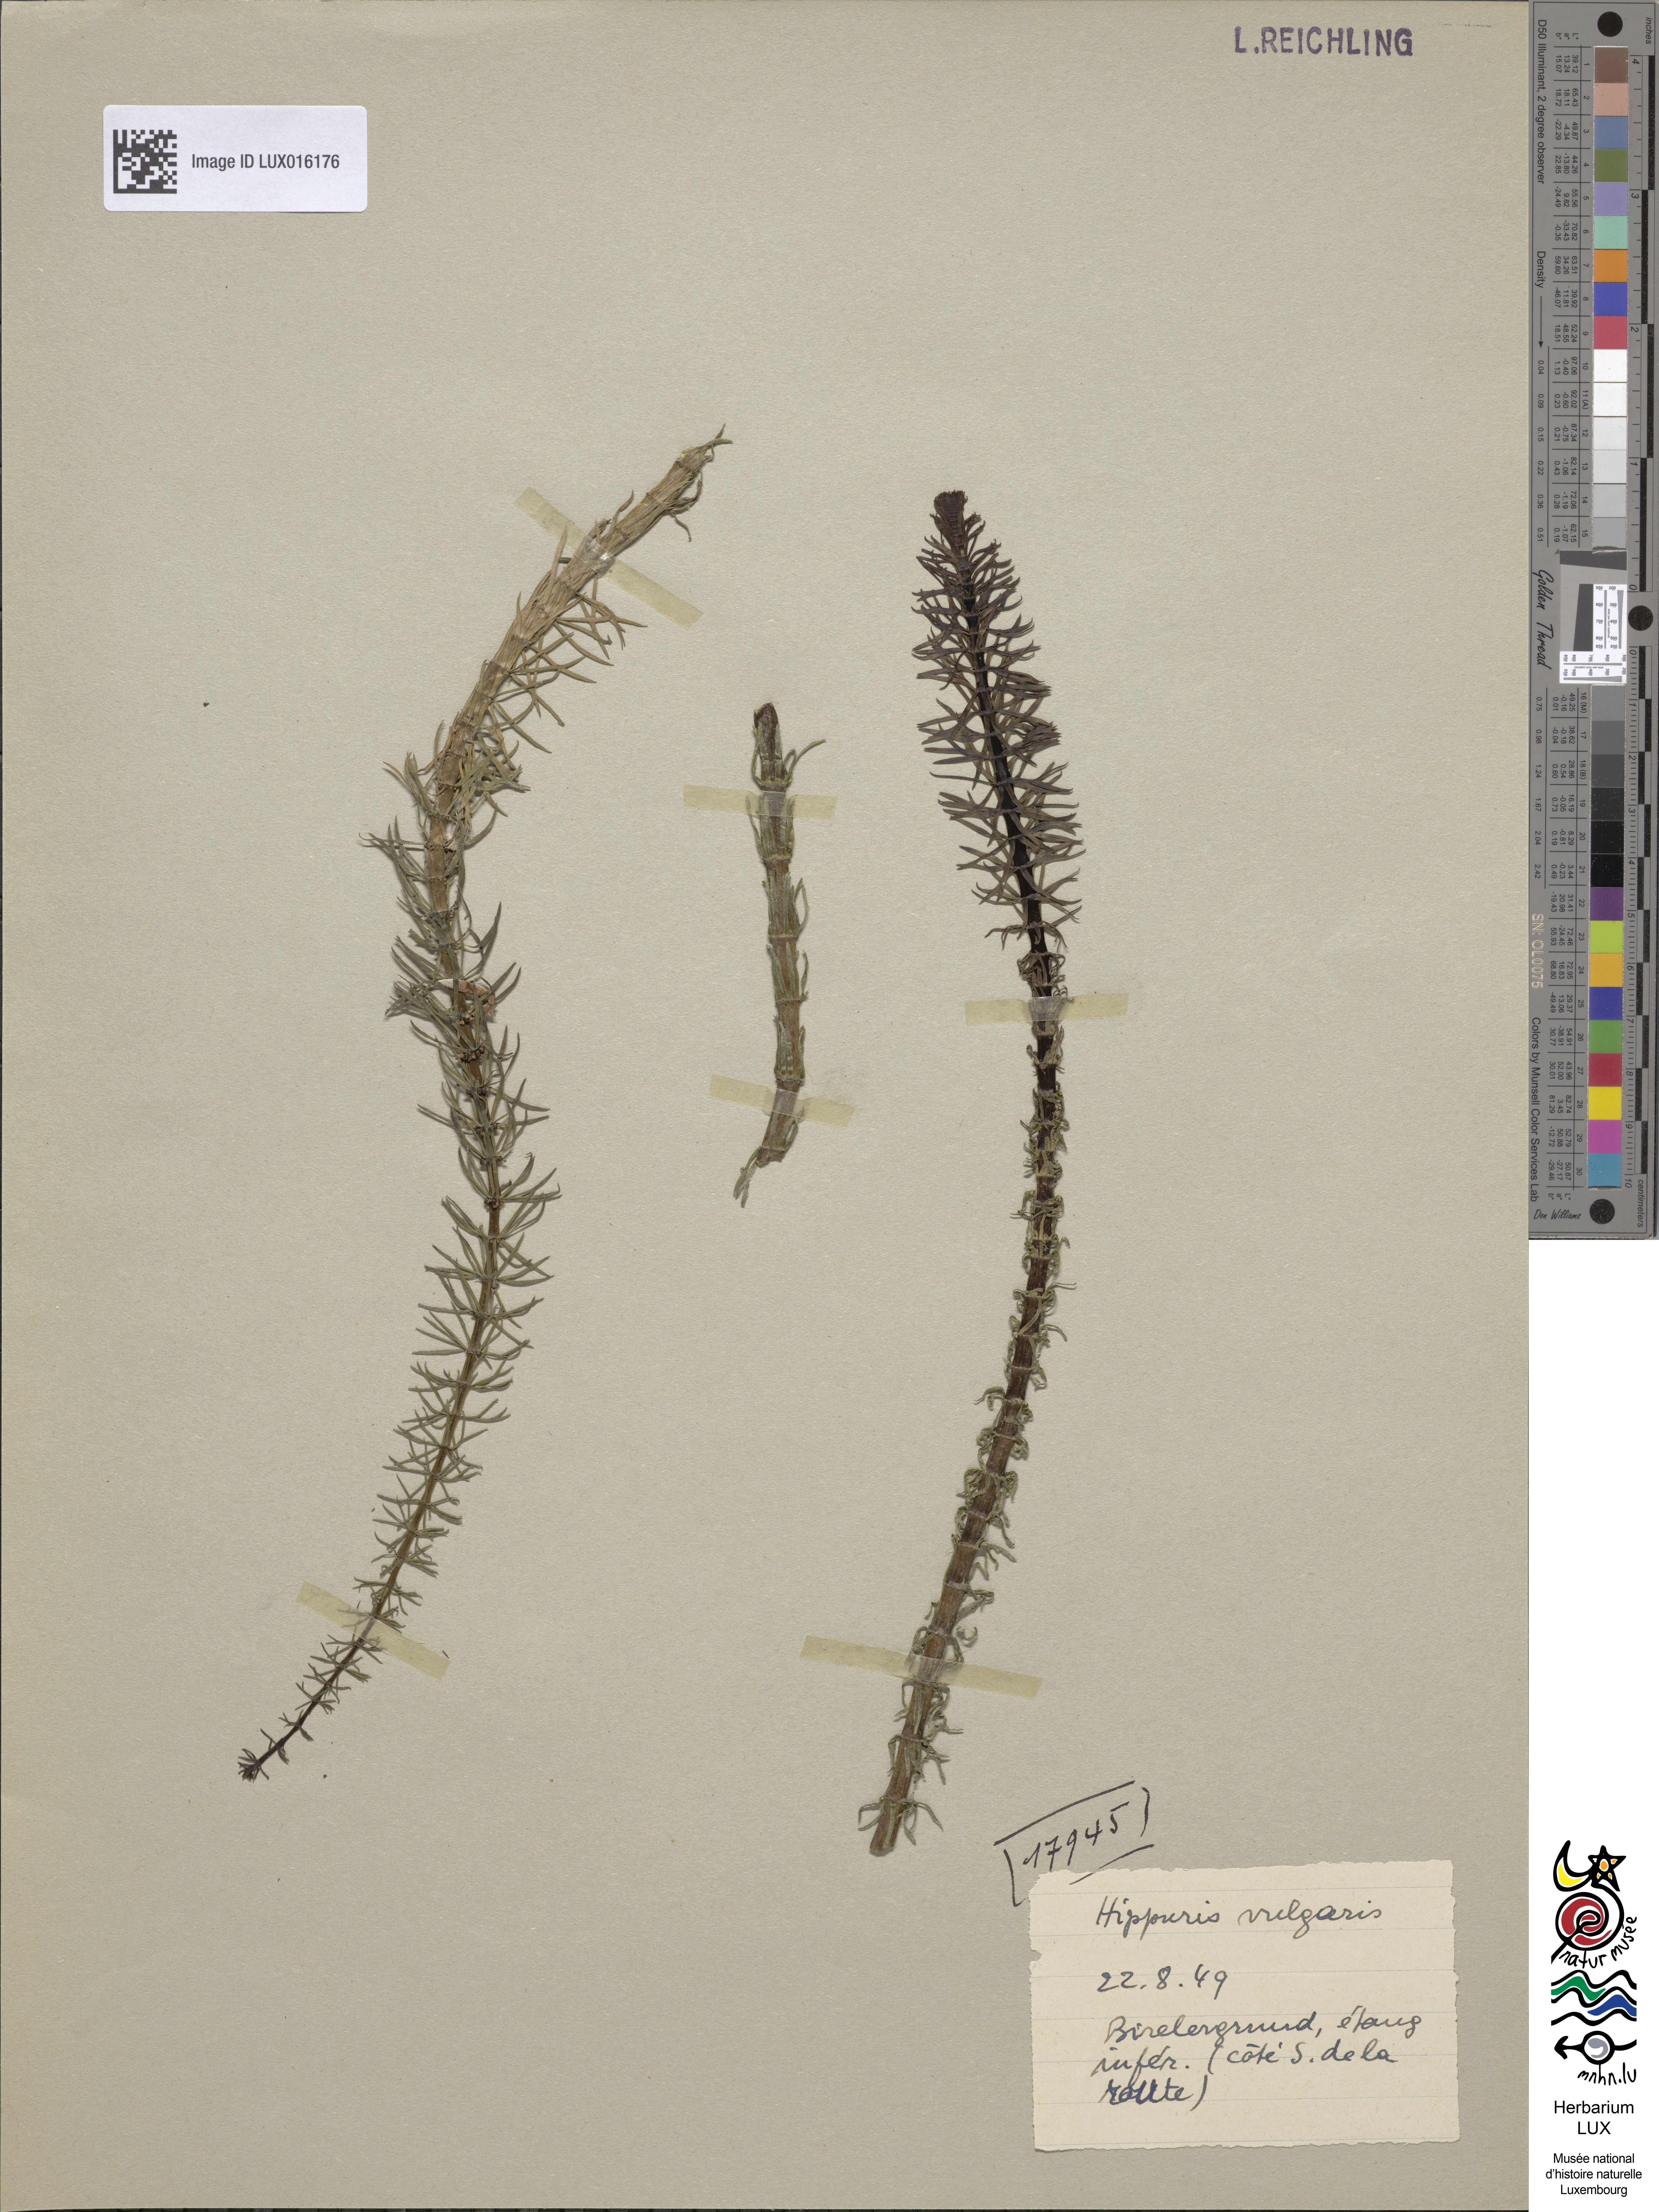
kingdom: Plantae
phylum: Tracheophyta
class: Magnoliopsida
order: Lamiales
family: Plantaginaceae
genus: Hippuris
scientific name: Hippuris vulgaris
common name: Mare's-tail
